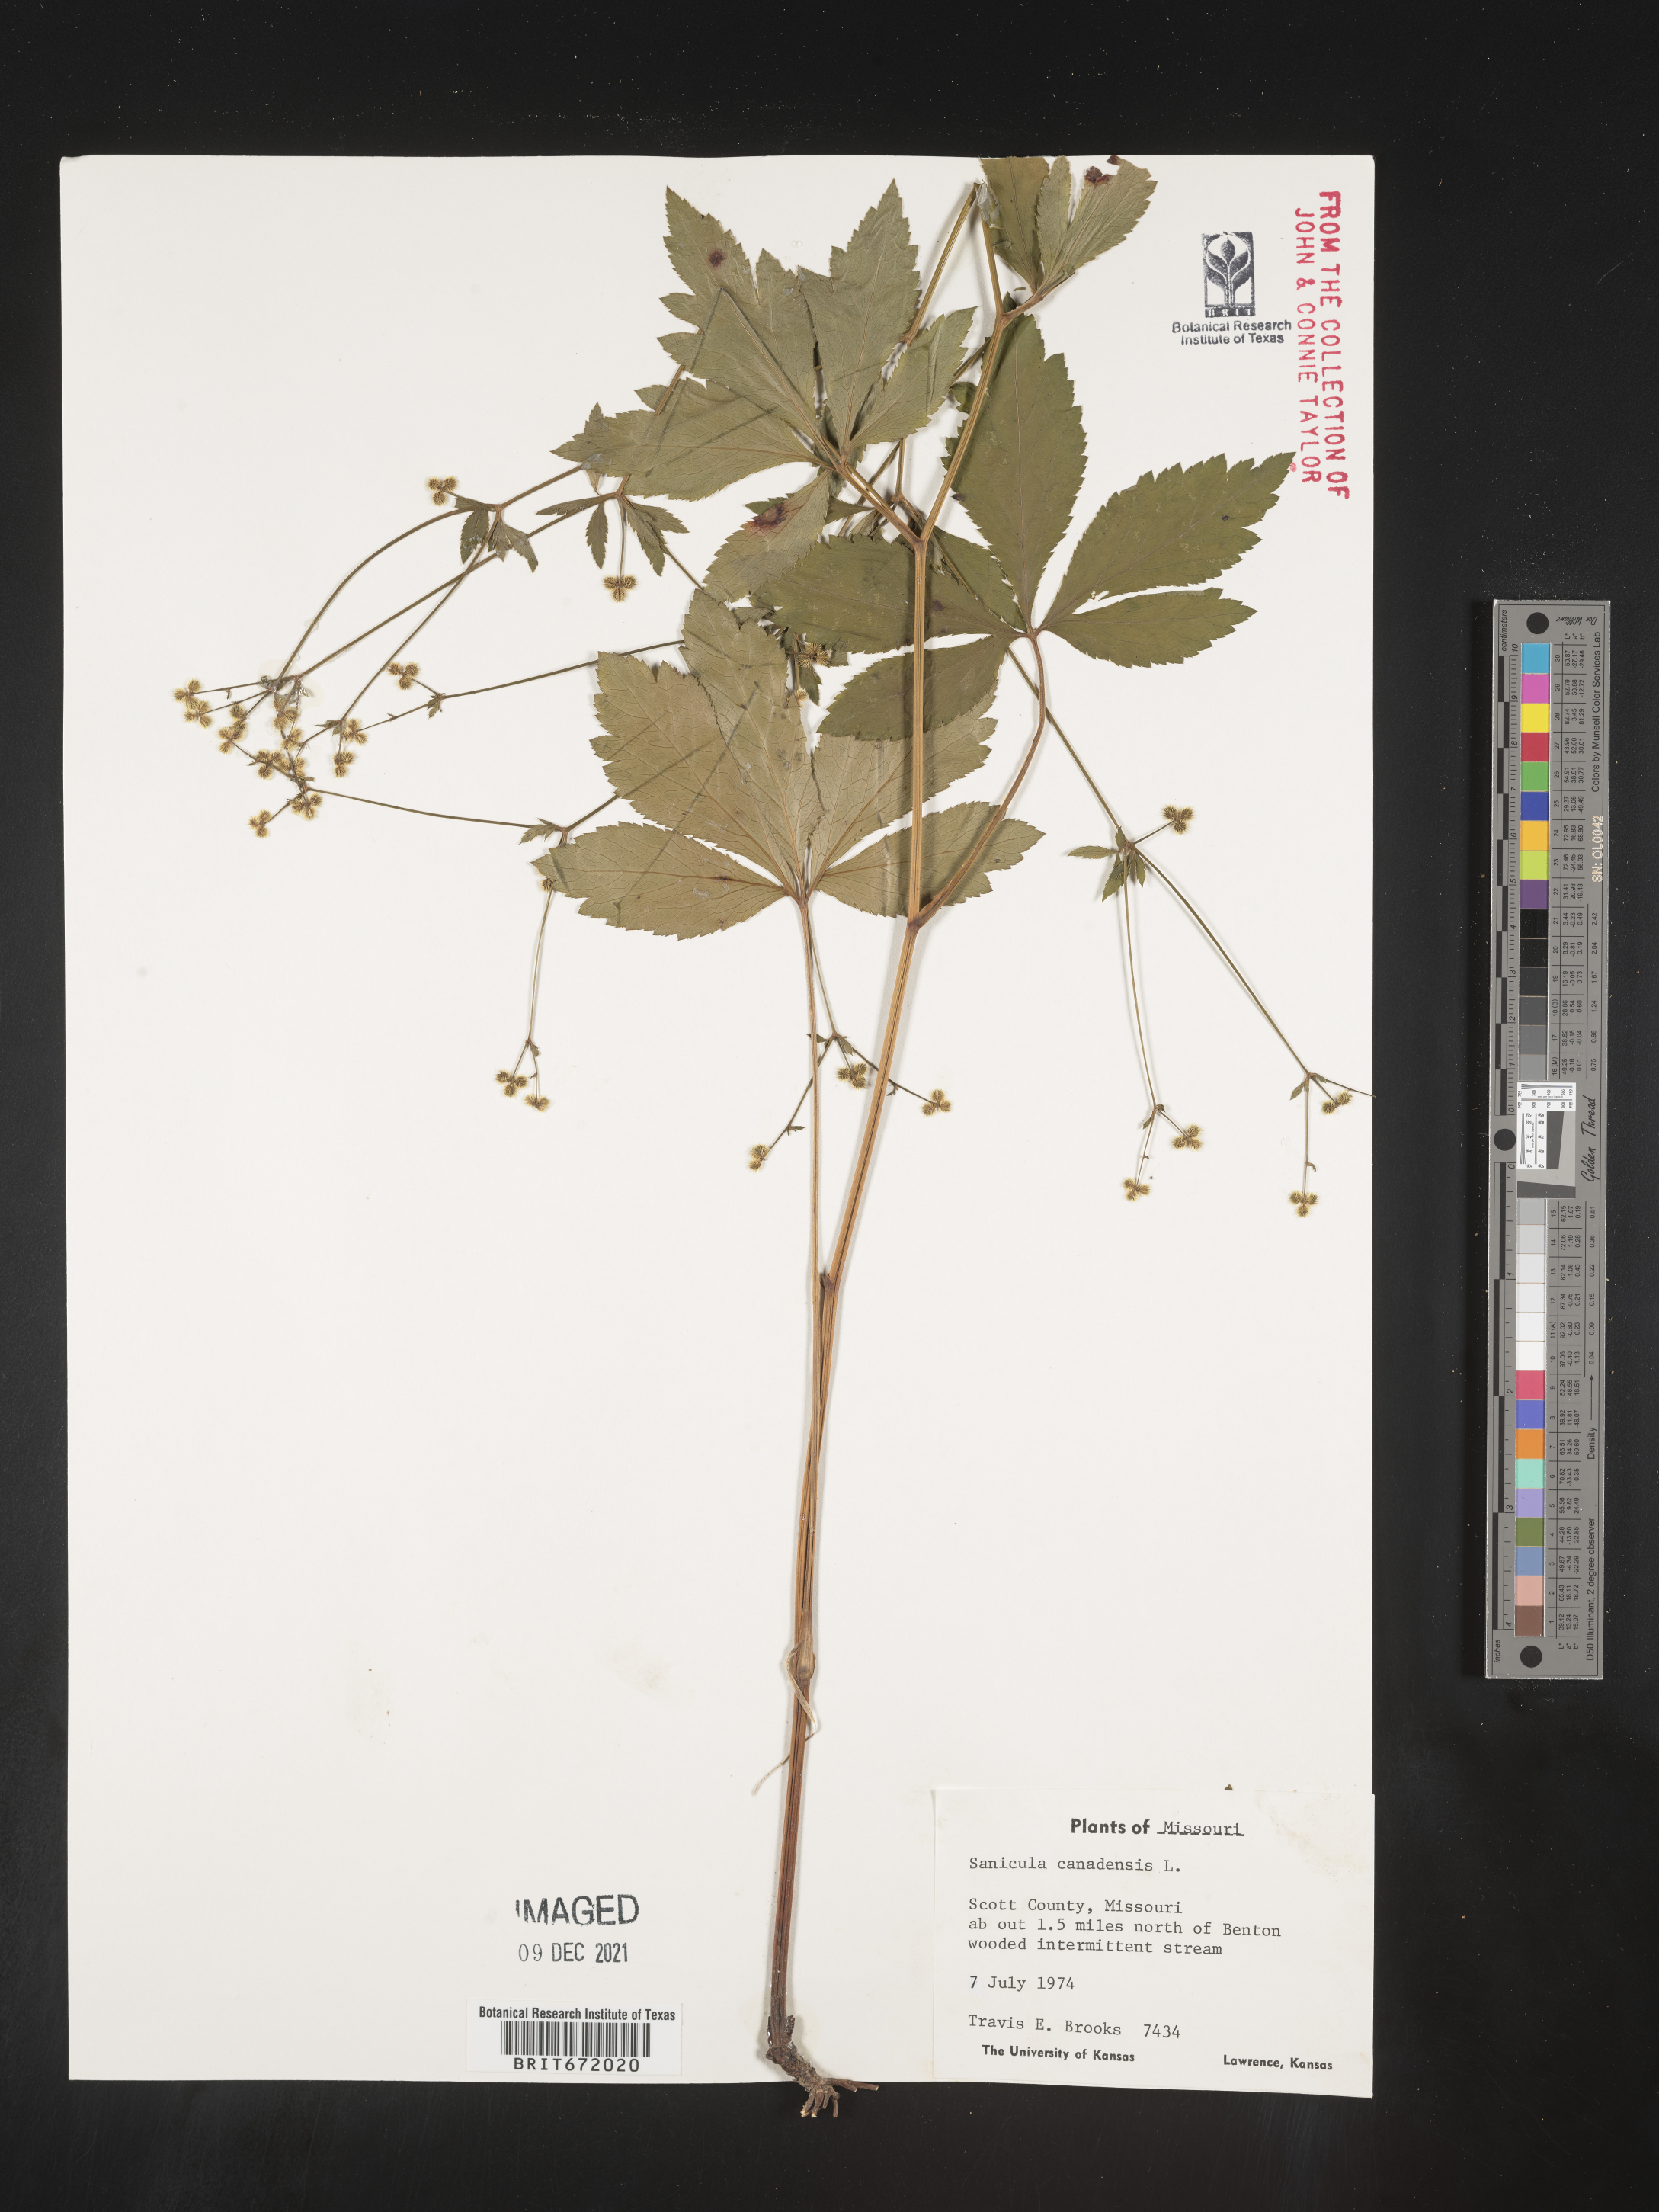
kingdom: Plantae
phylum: Tracheophyta
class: Magnoliopsida
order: Apiales
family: Apiaceae
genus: Sanicula
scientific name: Sanicula canadensis
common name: Canada sanicle
